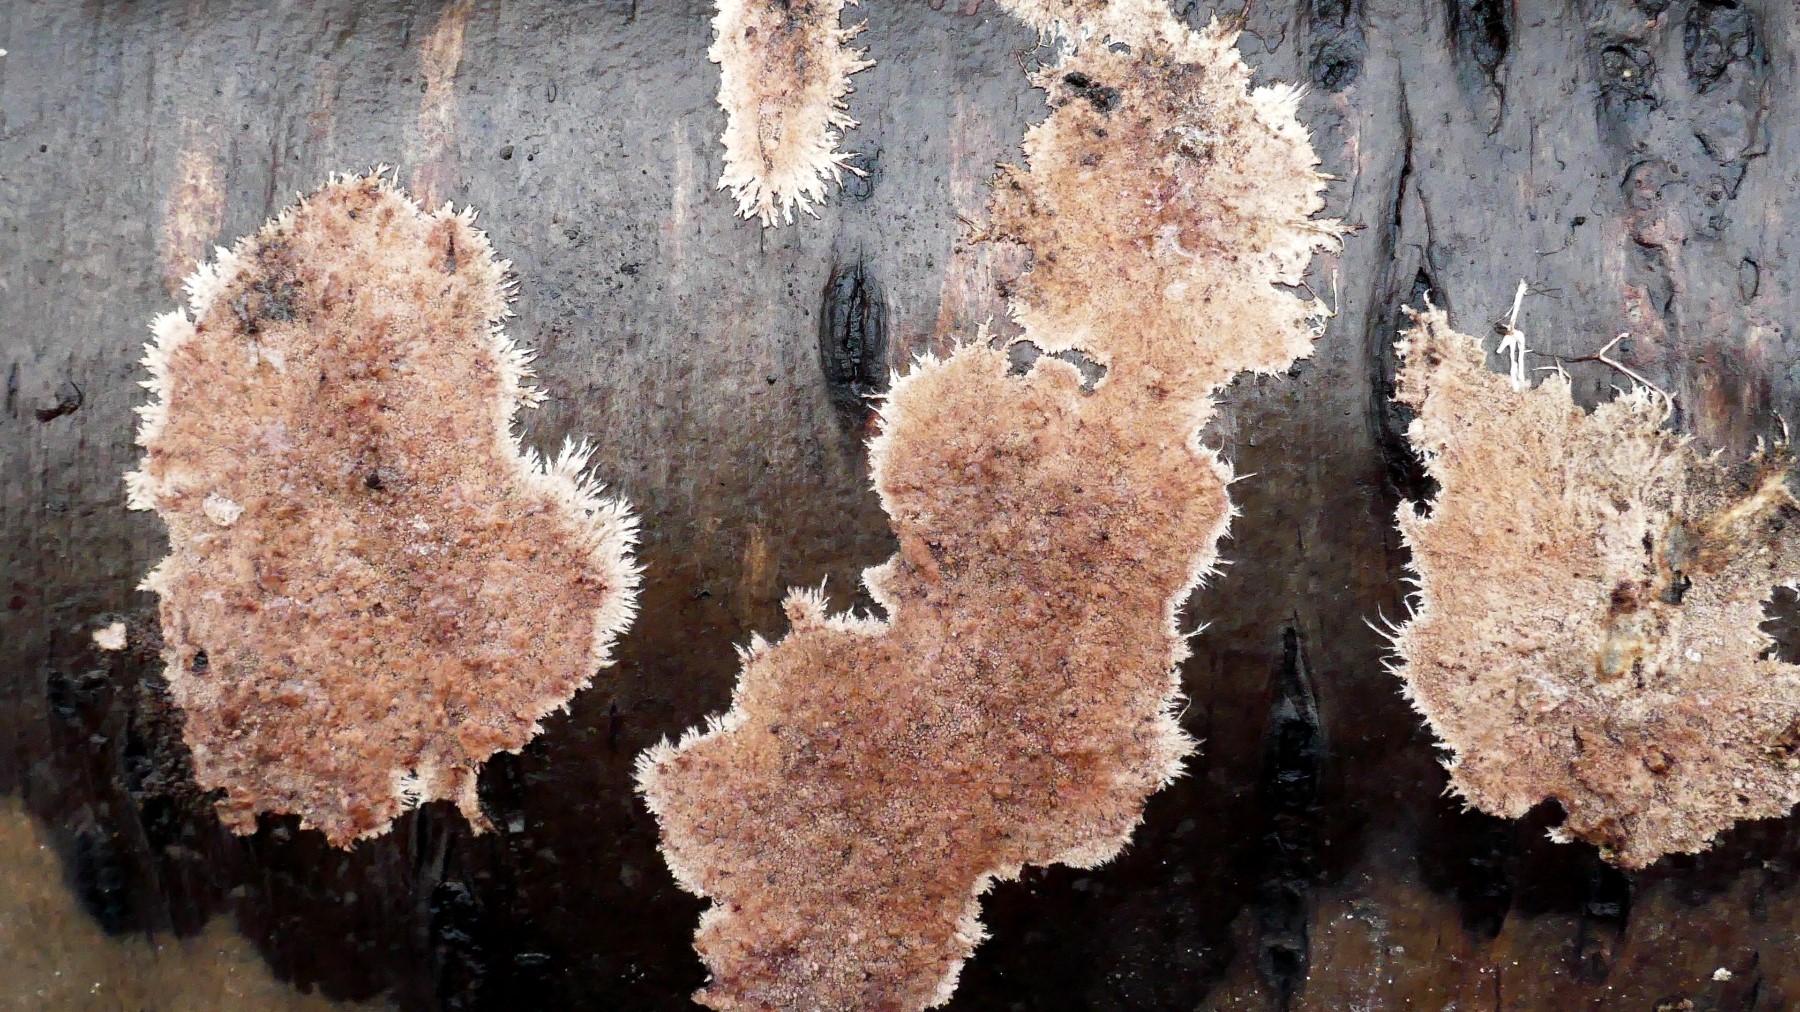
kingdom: Fungi
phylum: Basidiomycota
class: Agaricomycetes
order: Polyporales
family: Steccherinaceae
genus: Steccherinum
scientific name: Steccherinum fimbriatum
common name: trådet skønpig
